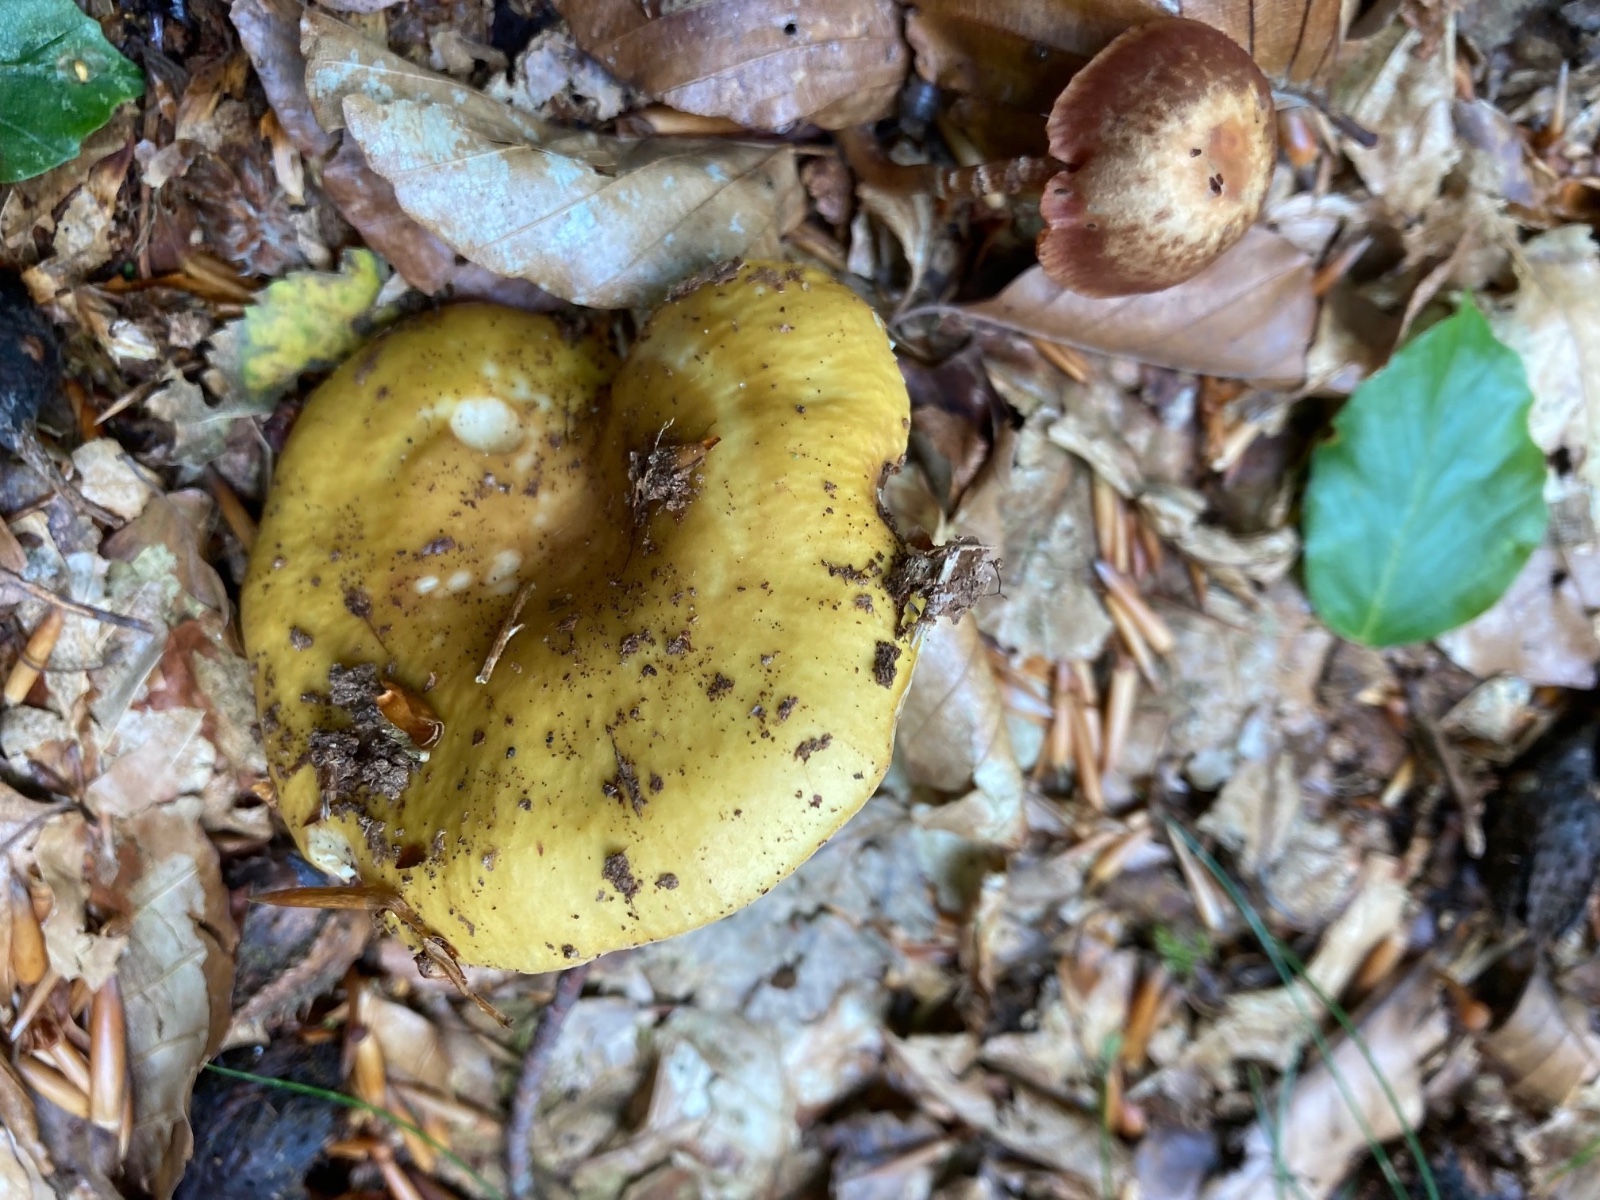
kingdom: Fungi
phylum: Basidiomycota
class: Agaricomycetes
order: Russulales
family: Russulaceae
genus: Russula
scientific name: Russula ochroleuca
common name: okkergul skørhat
